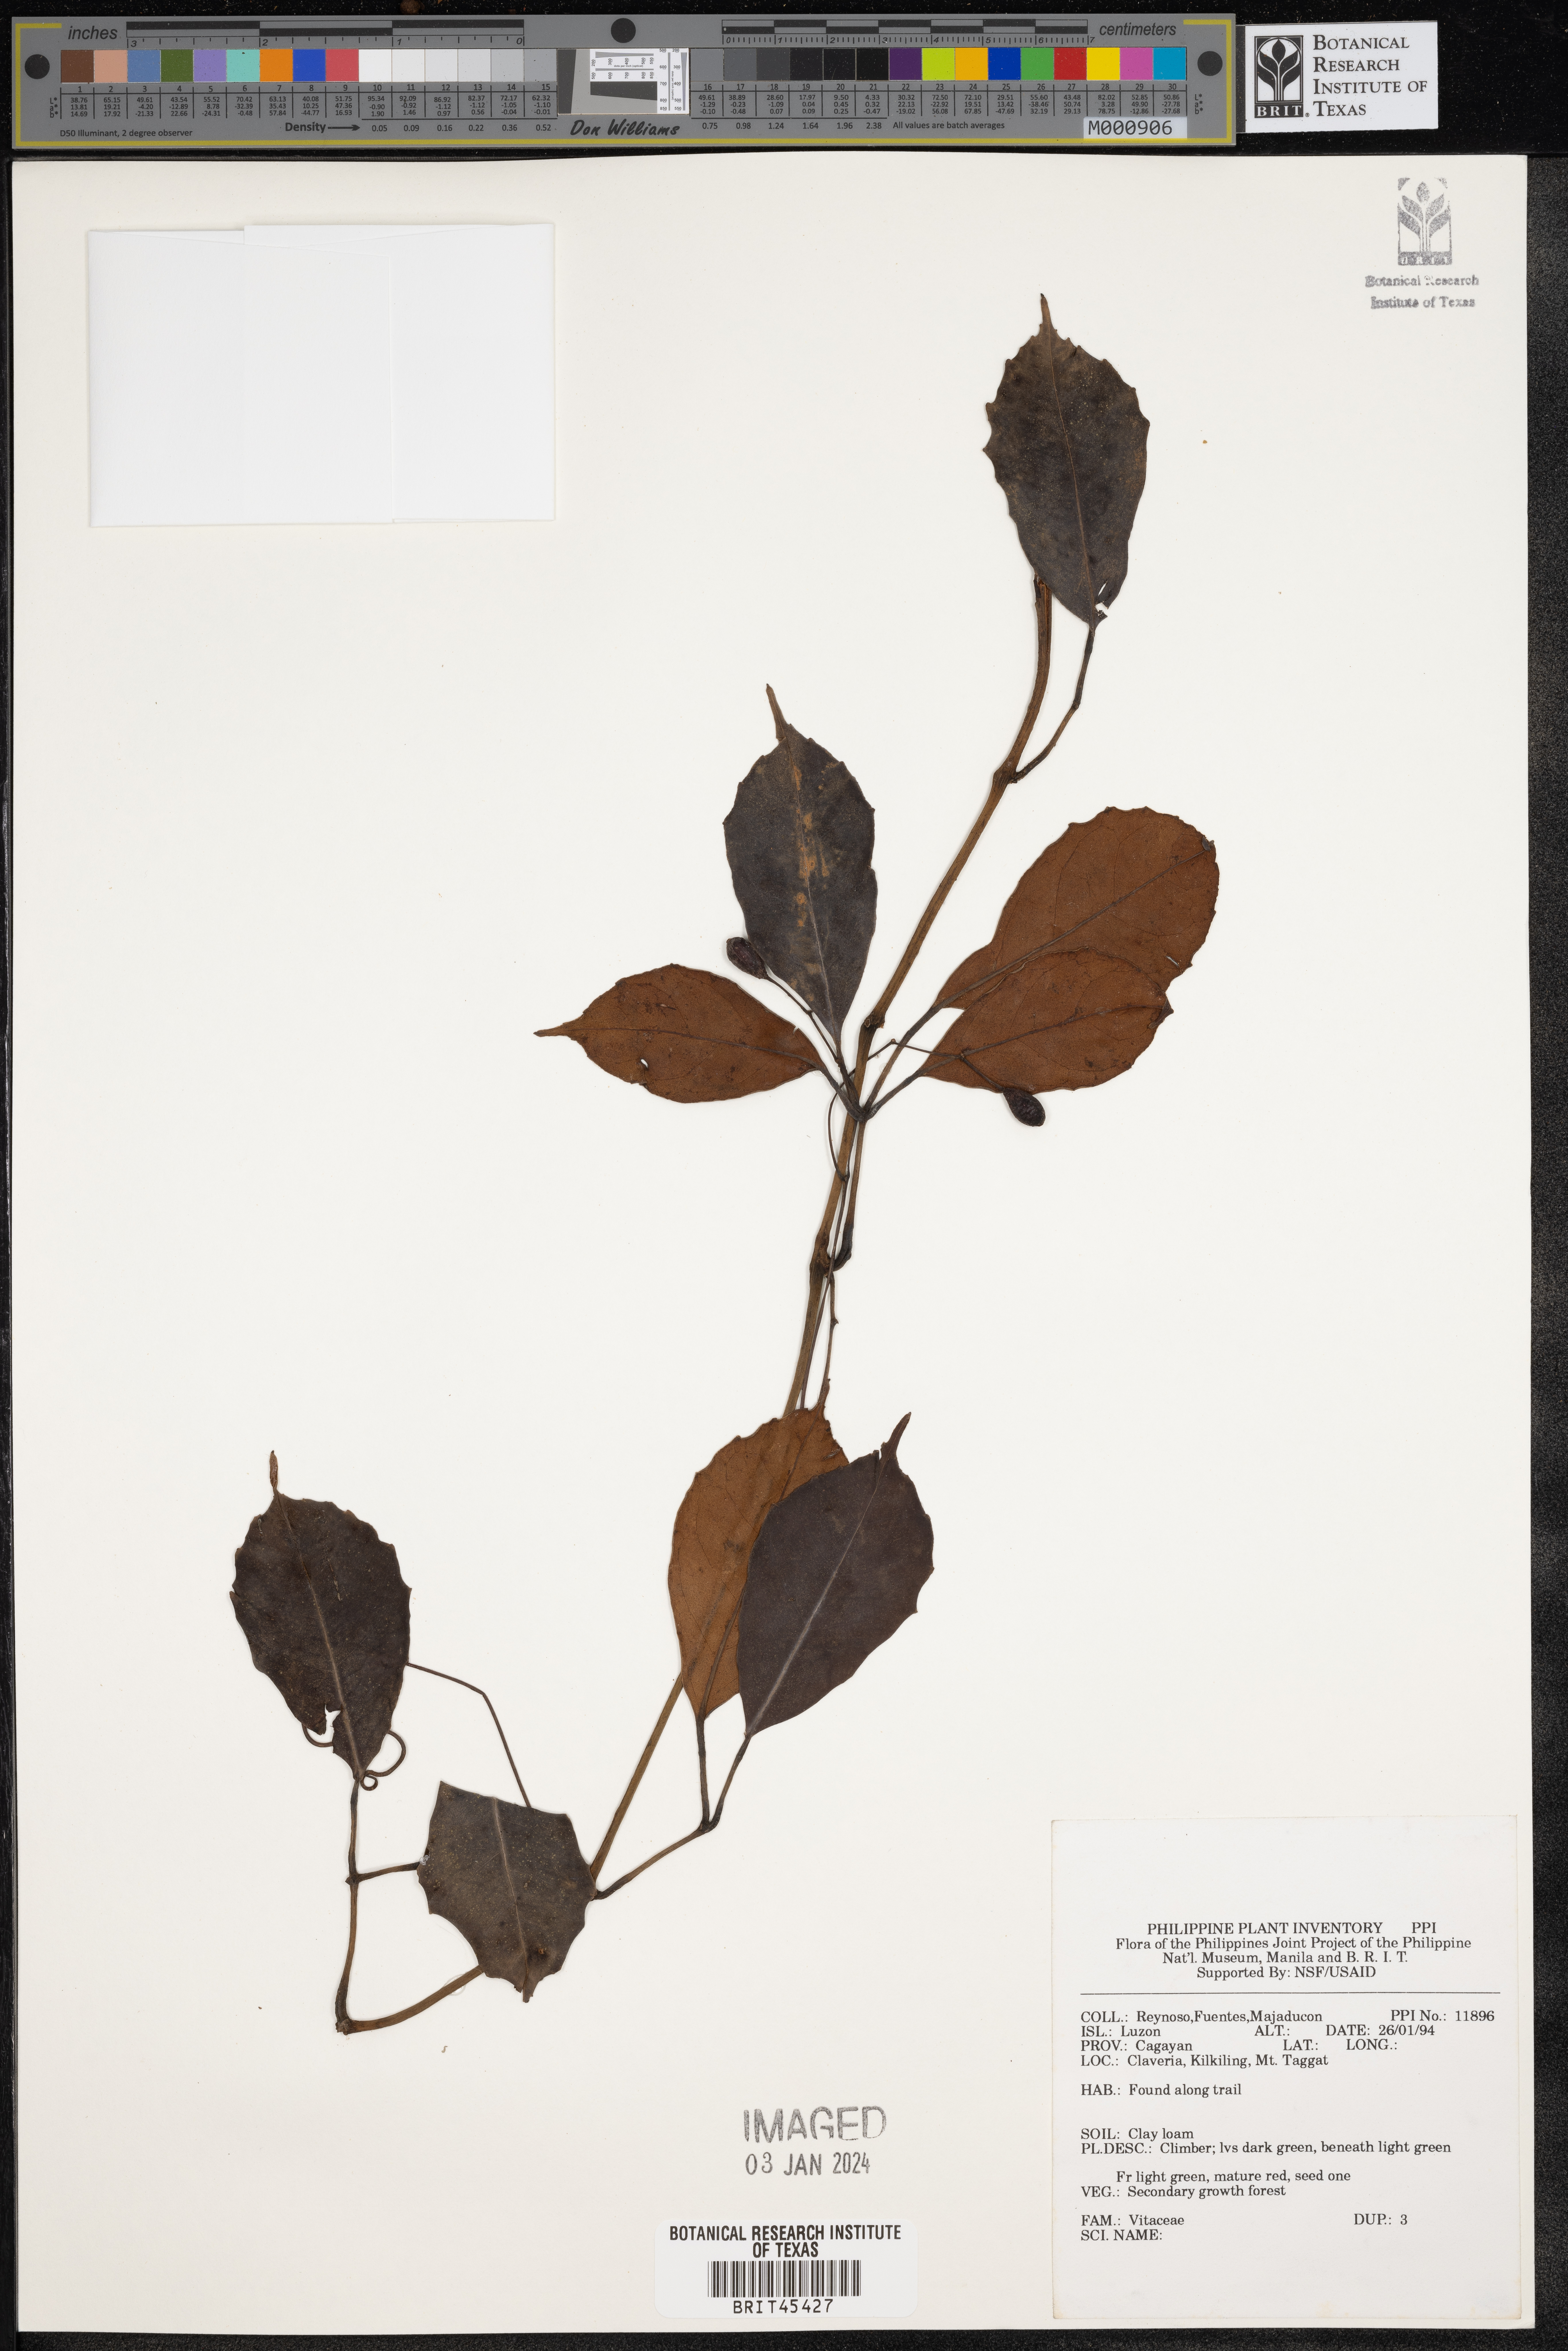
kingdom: Plantae
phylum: Tracheophyta
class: Magnoliopsida
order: Vitales
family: Vitaceae
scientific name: Vitaceae
